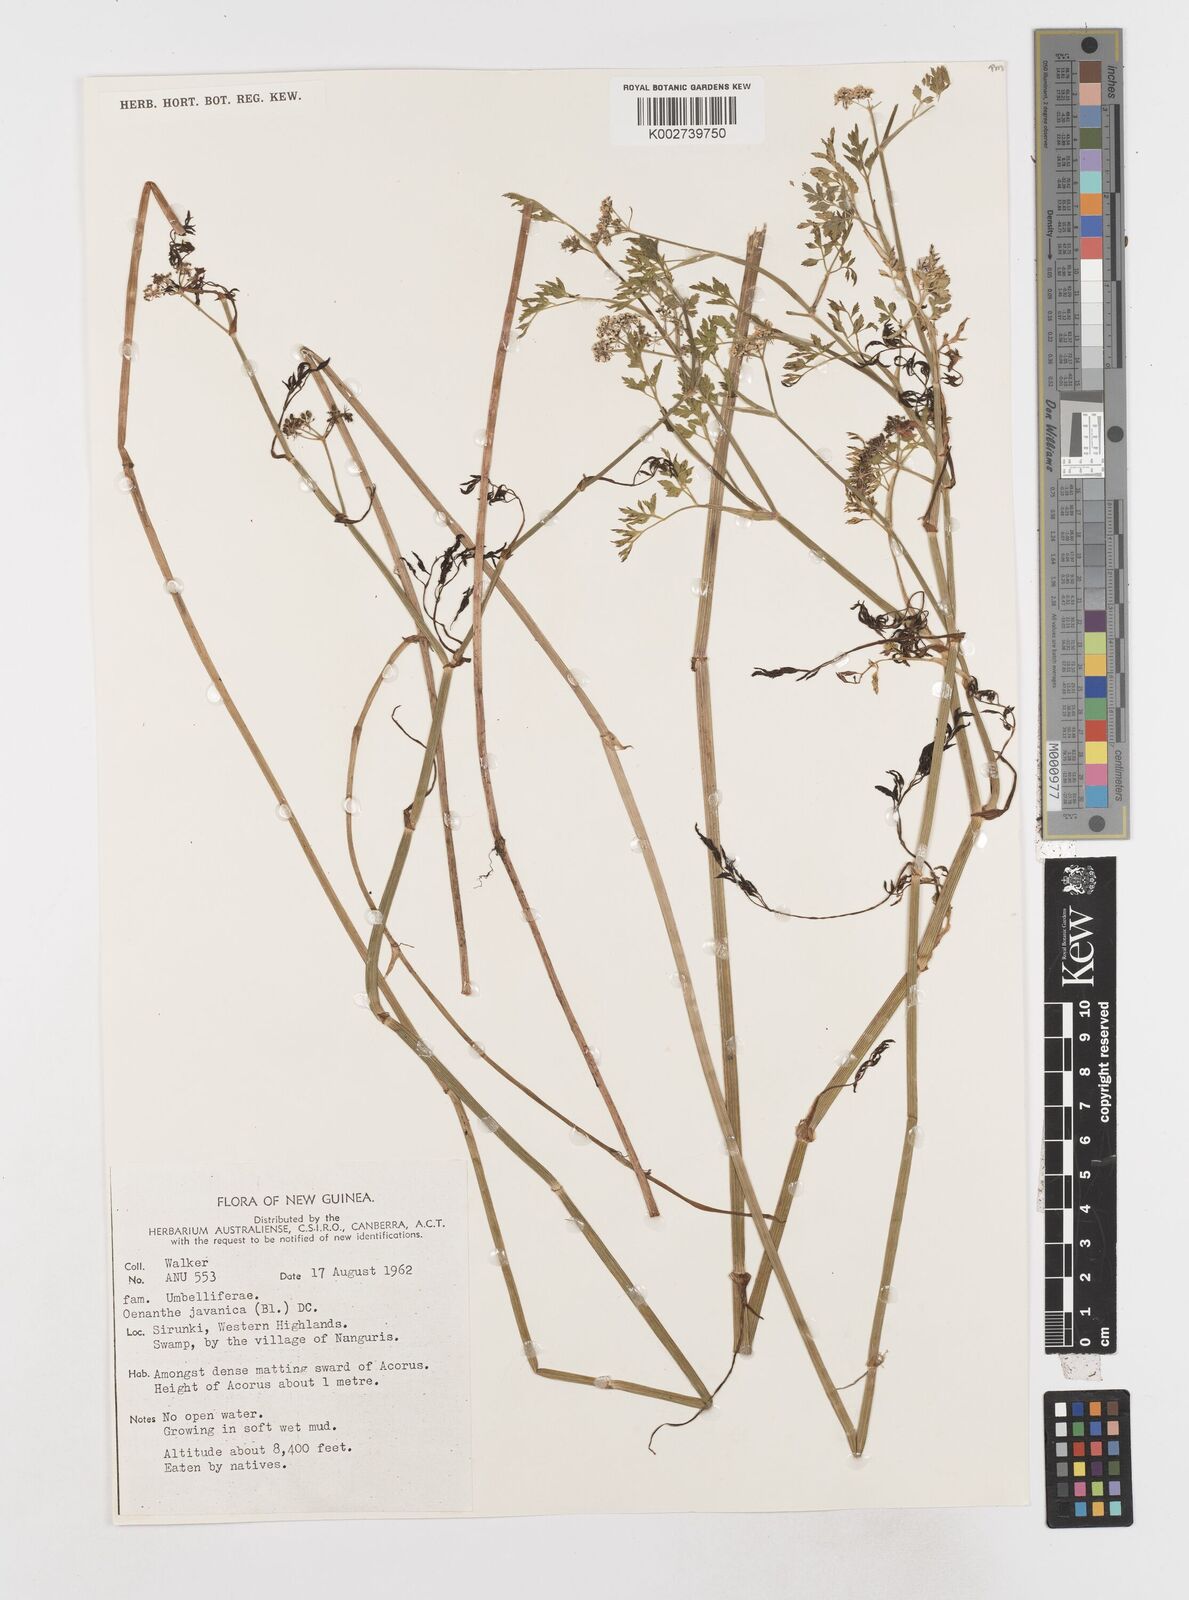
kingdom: Plantae
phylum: Tracheophyta
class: Magnoliopsida
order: Apiales
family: Apiaceae
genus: Oenanthe
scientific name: Oenanthe javanica
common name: Java water-dropwort
